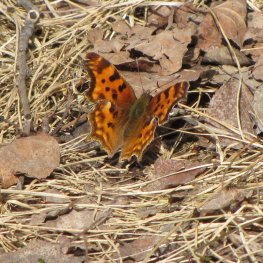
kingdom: Animalia
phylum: Arthropoda
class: Insecta
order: Lepidoptera
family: Nymphalidae
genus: Polygonia
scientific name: Polygonia satyrus
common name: Satyr Comma
